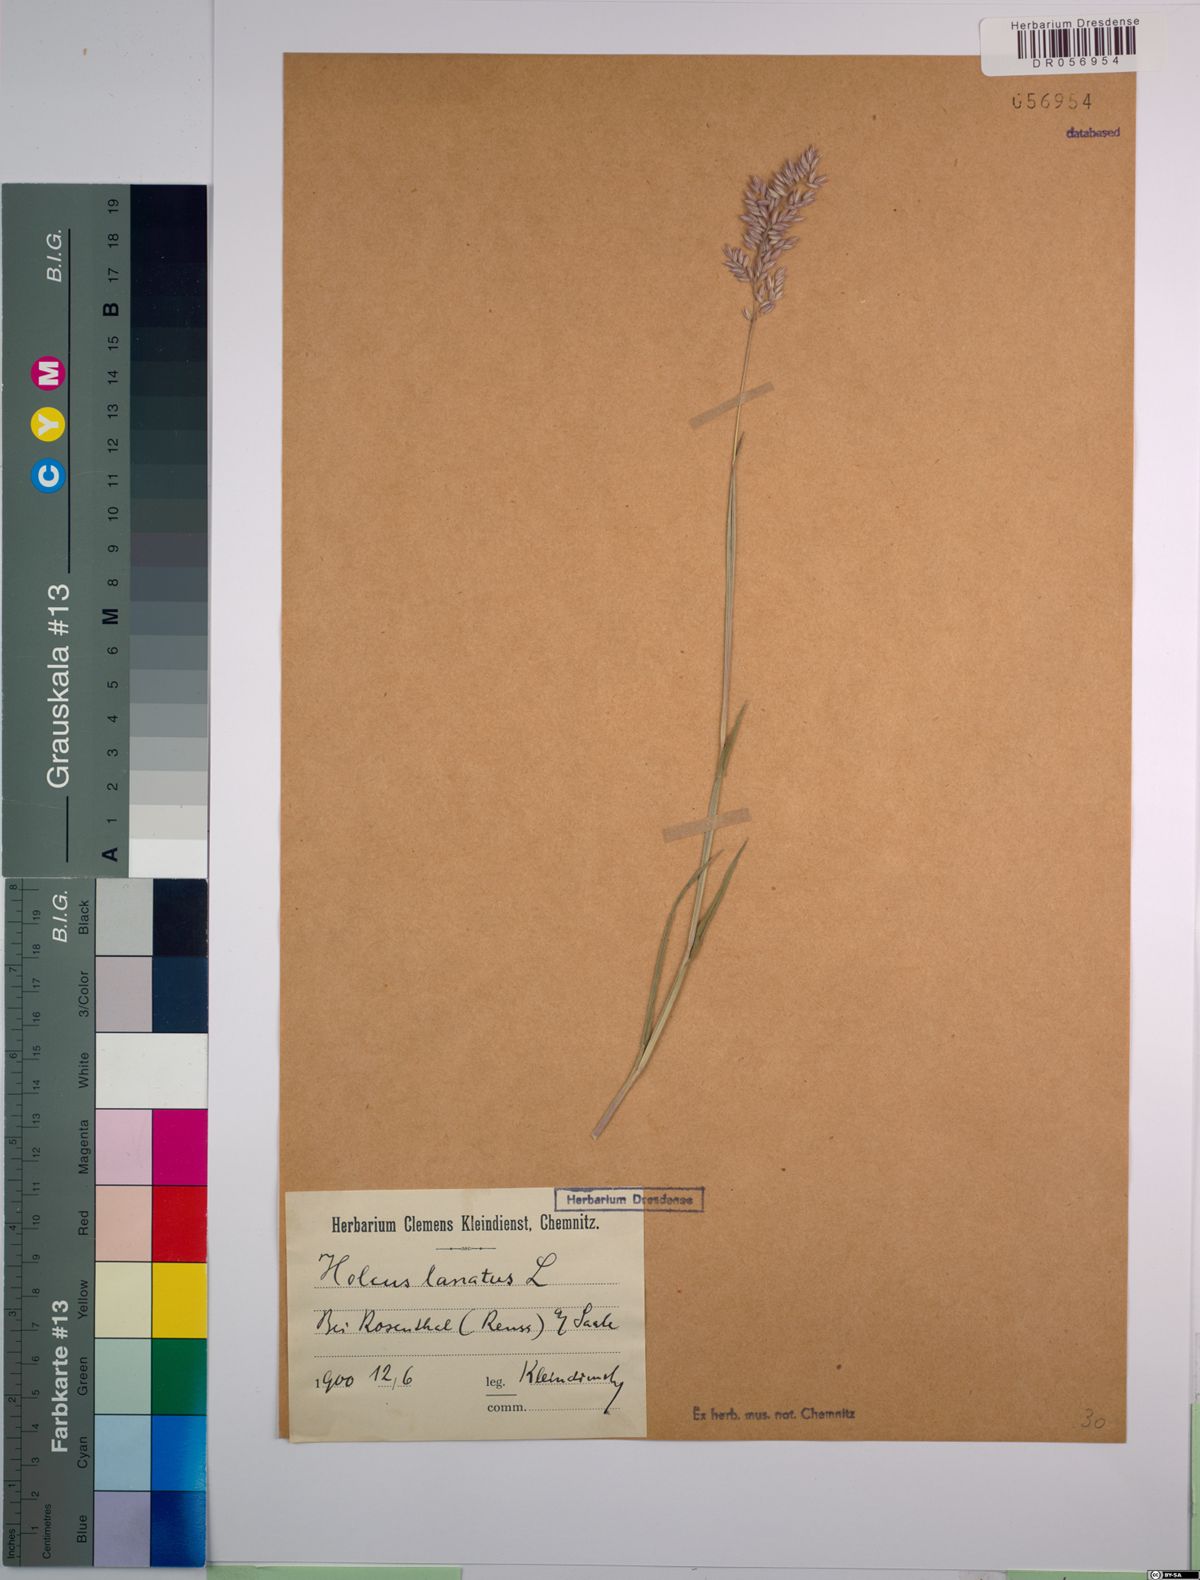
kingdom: Plantae
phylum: Tracheophyta
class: Liliopsida
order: Poales
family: Poaceae
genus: Holcus
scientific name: Holcus lanatus
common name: Yorkshire-fog
